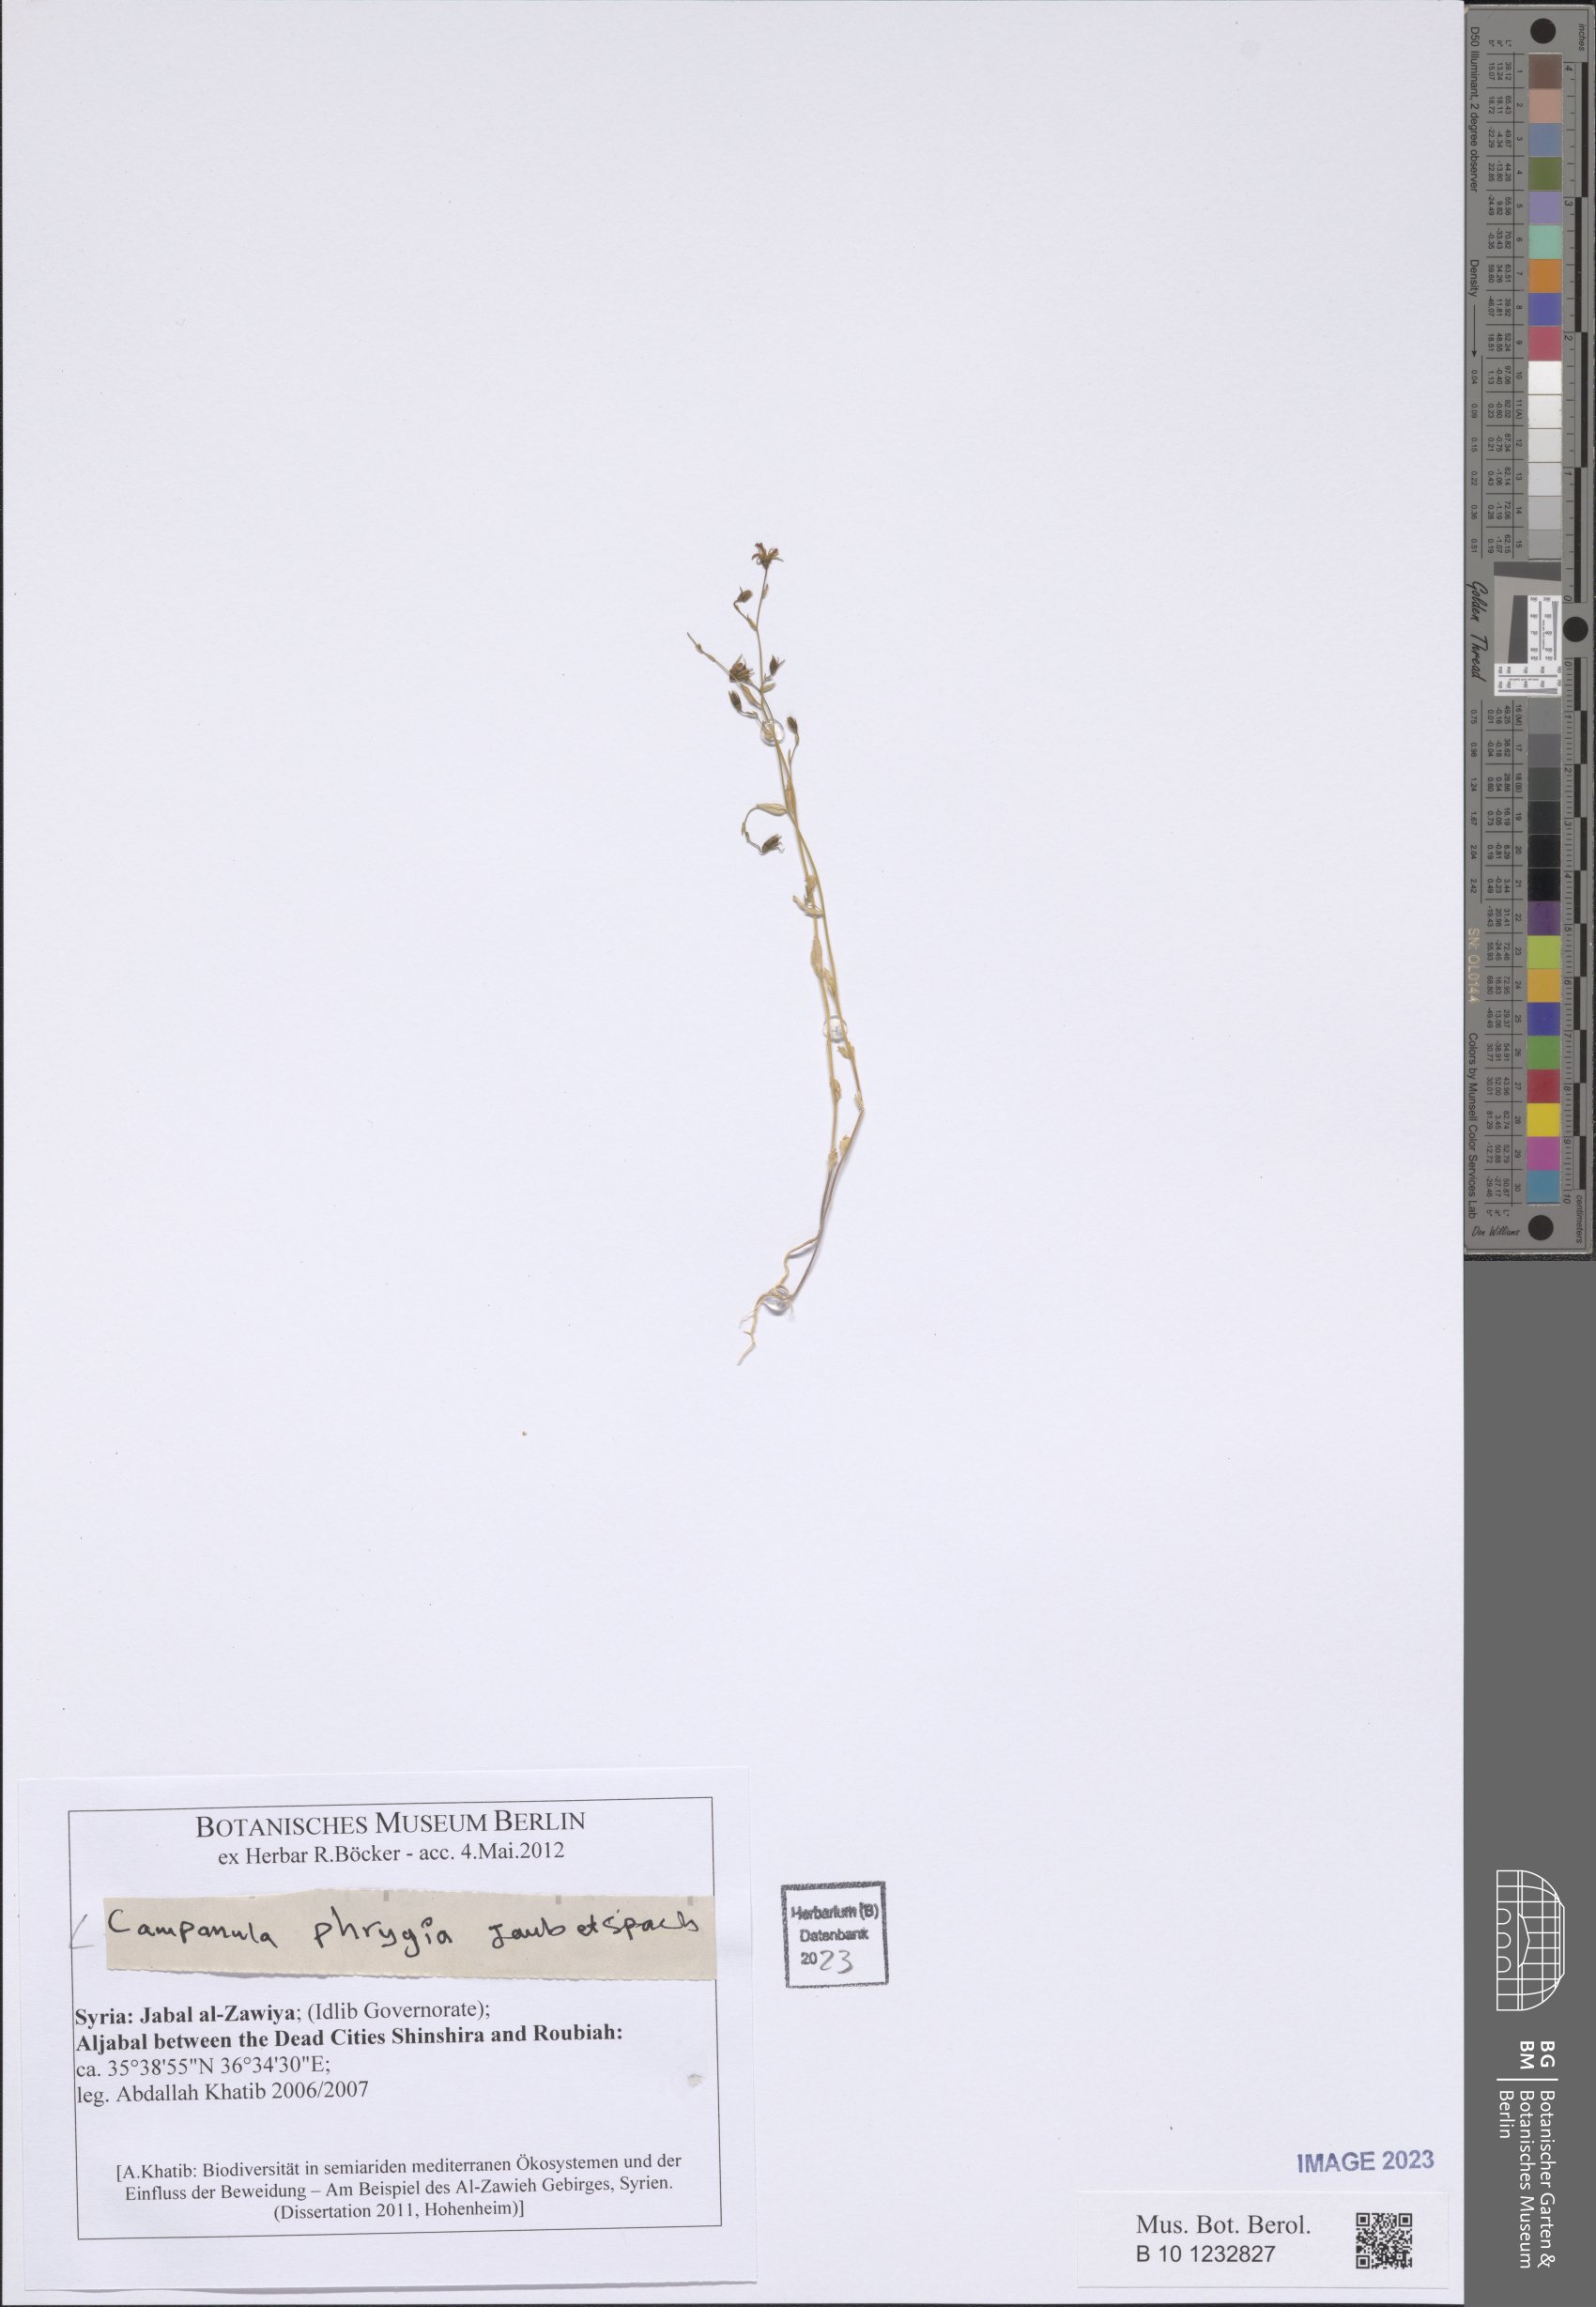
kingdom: Plantae
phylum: Tracheophyta
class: Magnoliopsida
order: Asterales
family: Campanulaceae
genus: Campanula
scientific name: Campanula phrygia
